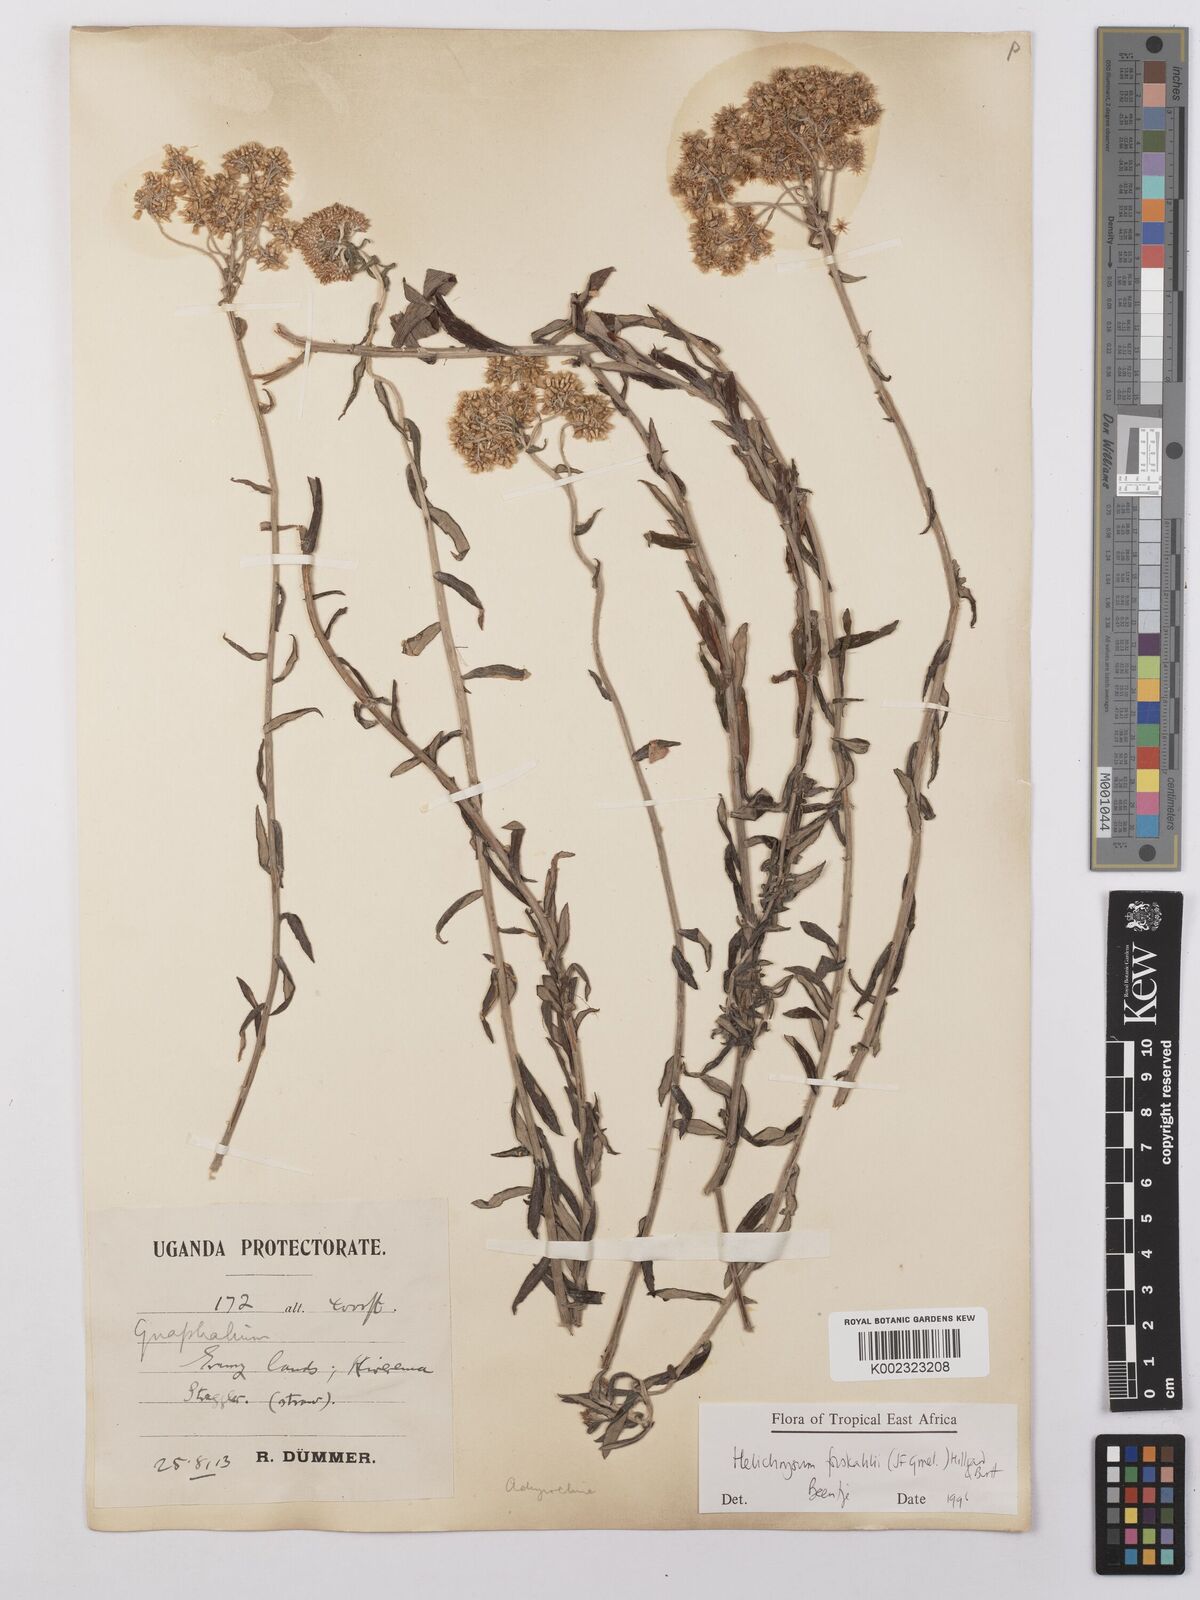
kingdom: Plantae
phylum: Tracheophyta
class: Magnoliopsida
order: Asterales
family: Asteraceae
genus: Helichrysum
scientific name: Helichrysum forskahlii
